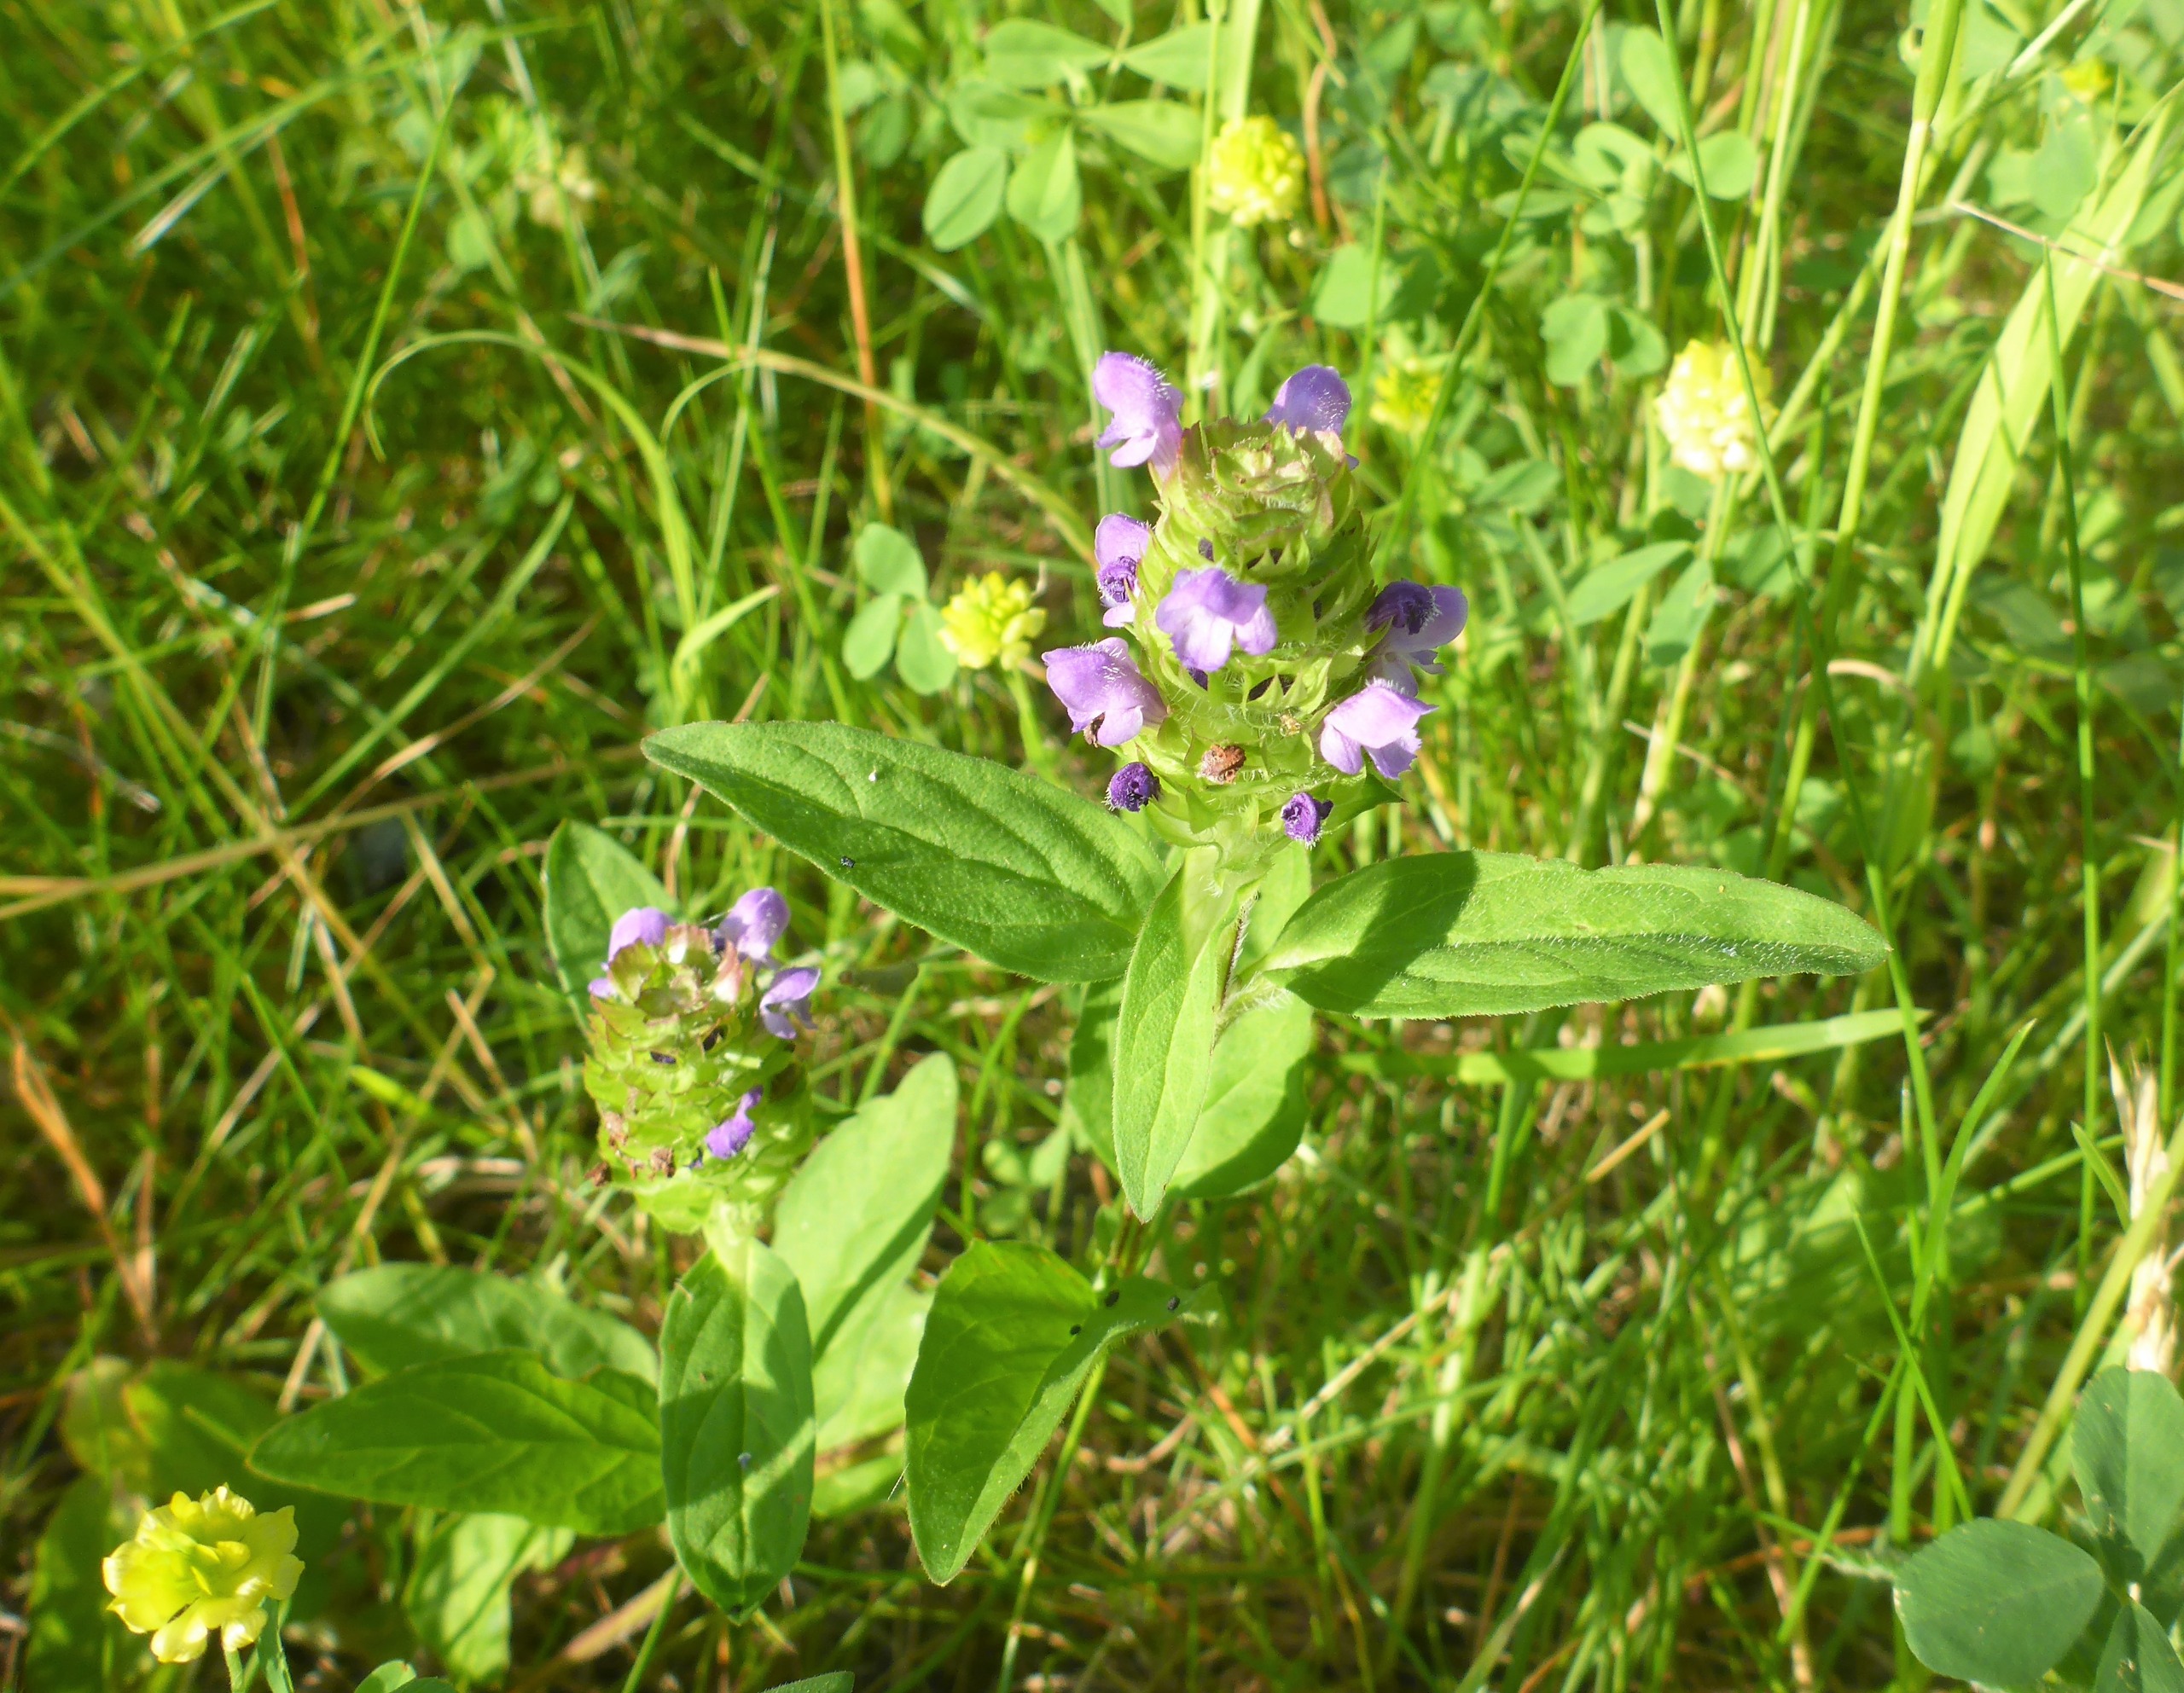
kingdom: Plantae
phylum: Tracheophyta
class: Magnoliopsida
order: Lamiales
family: Lamiaceae
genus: Prunella
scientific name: Prunella vulgaris
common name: Almindelig brunelle
